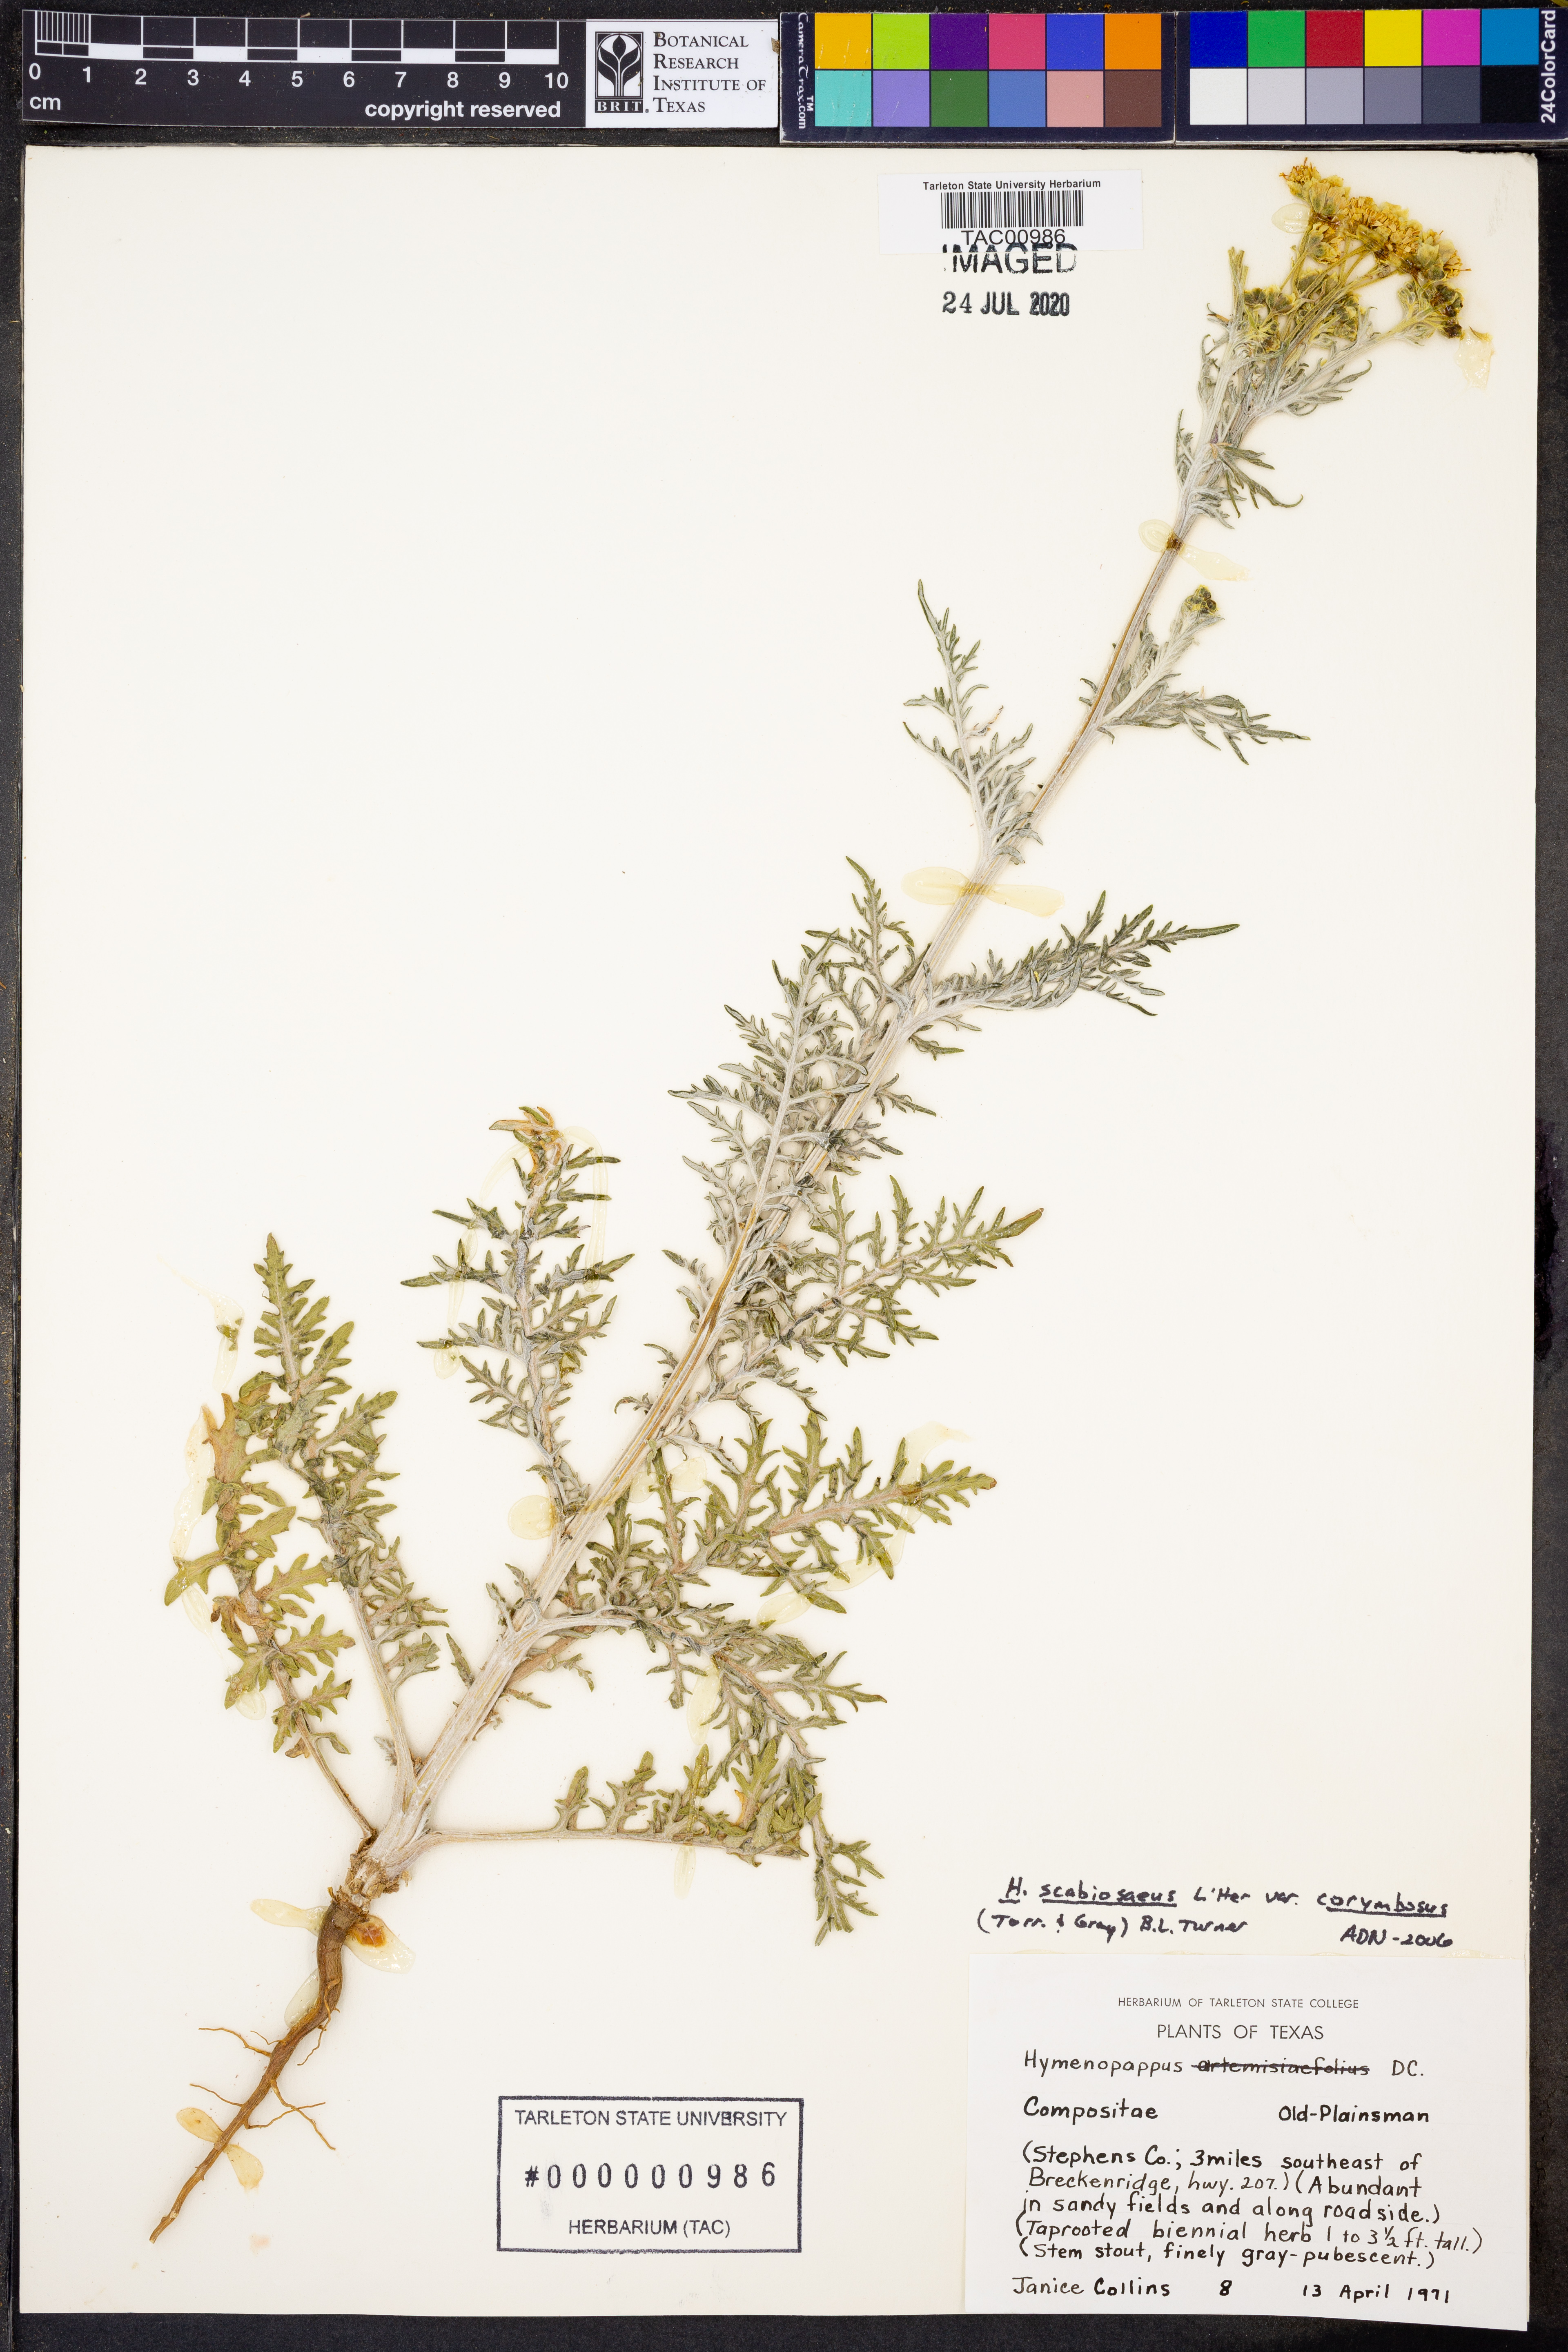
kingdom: Plantae
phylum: Tracheophyta
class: Magnoliopsida
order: Asterales
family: Asteraceae
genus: Hymenopappus
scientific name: Hymenopappus scabiosaeus
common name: Carolina woollywhite
